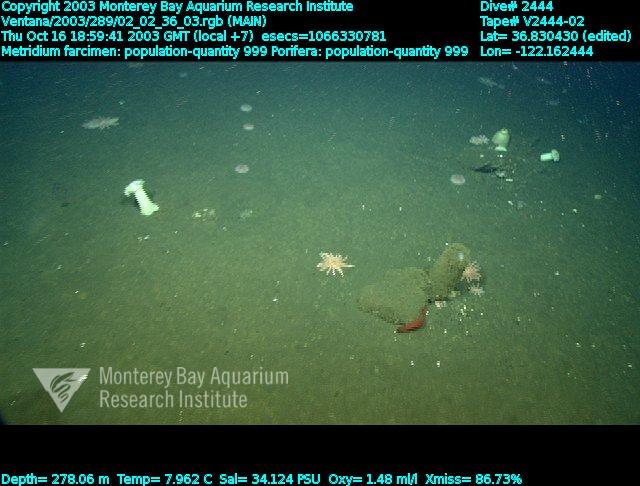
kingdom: Animalia
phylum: Porifera
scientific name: Porifera
